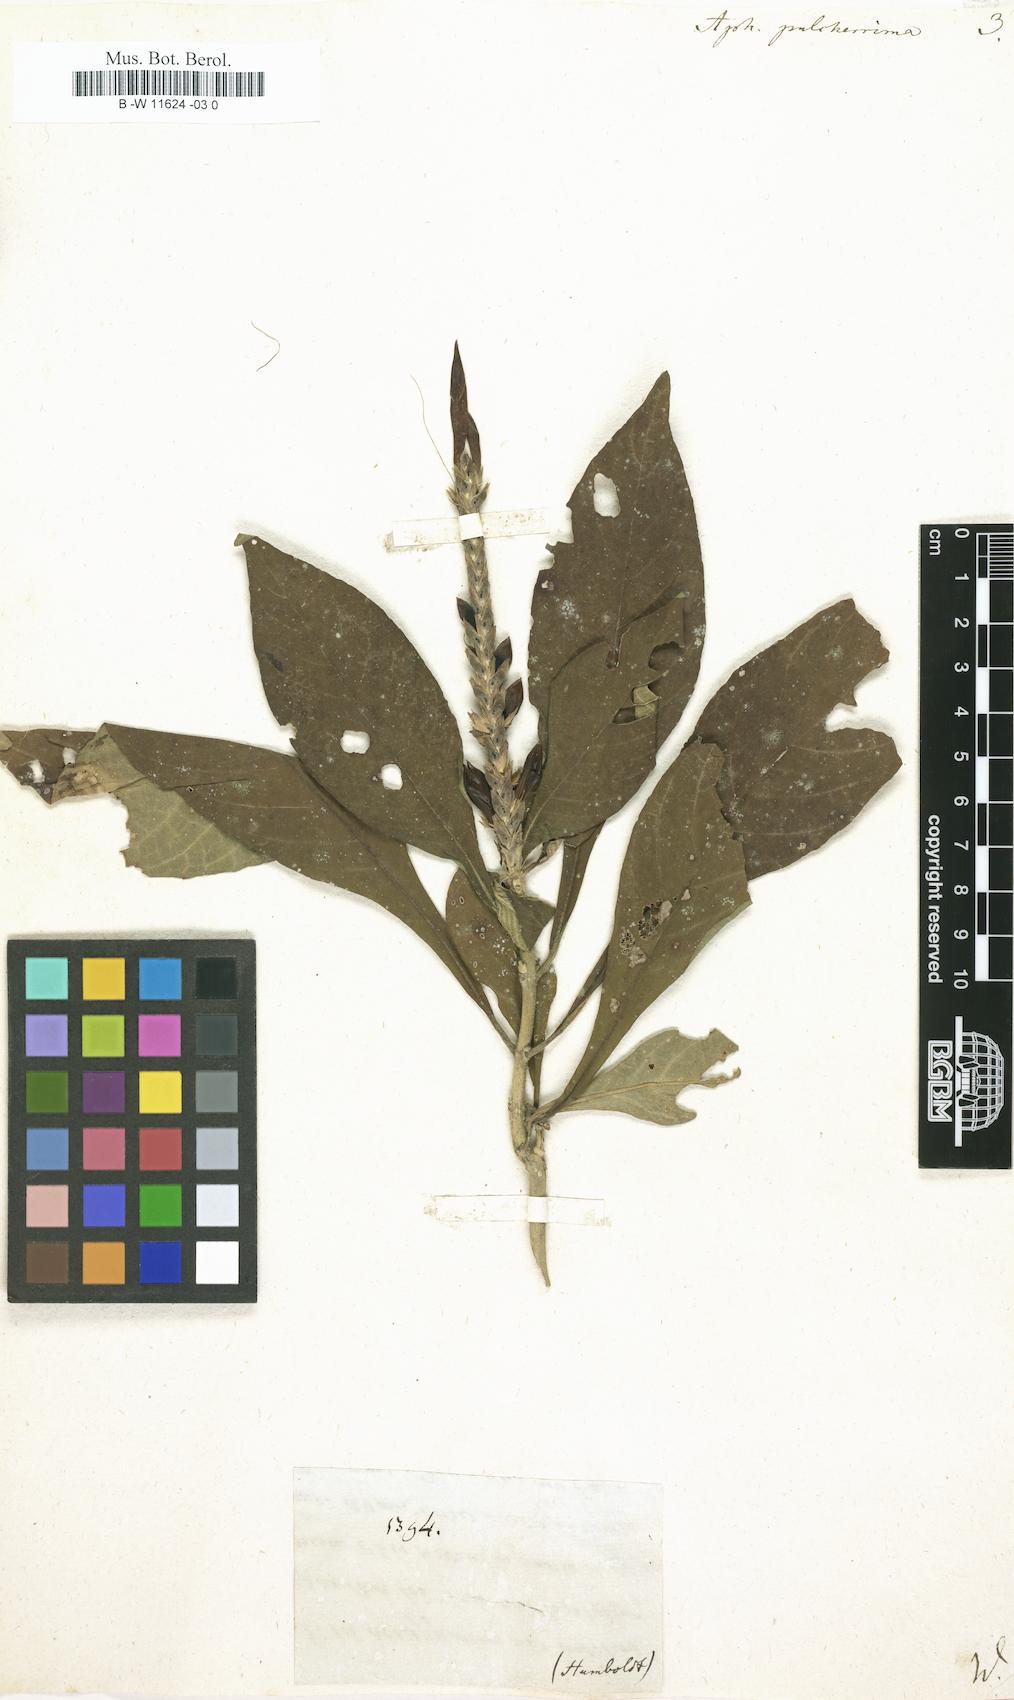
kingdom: Plantae
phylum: Tracheophyta
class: Magnoliopsida
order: Lamiales
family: Acanthaceae
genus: Aphelandra
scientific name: Aphelandra pulcherrima
